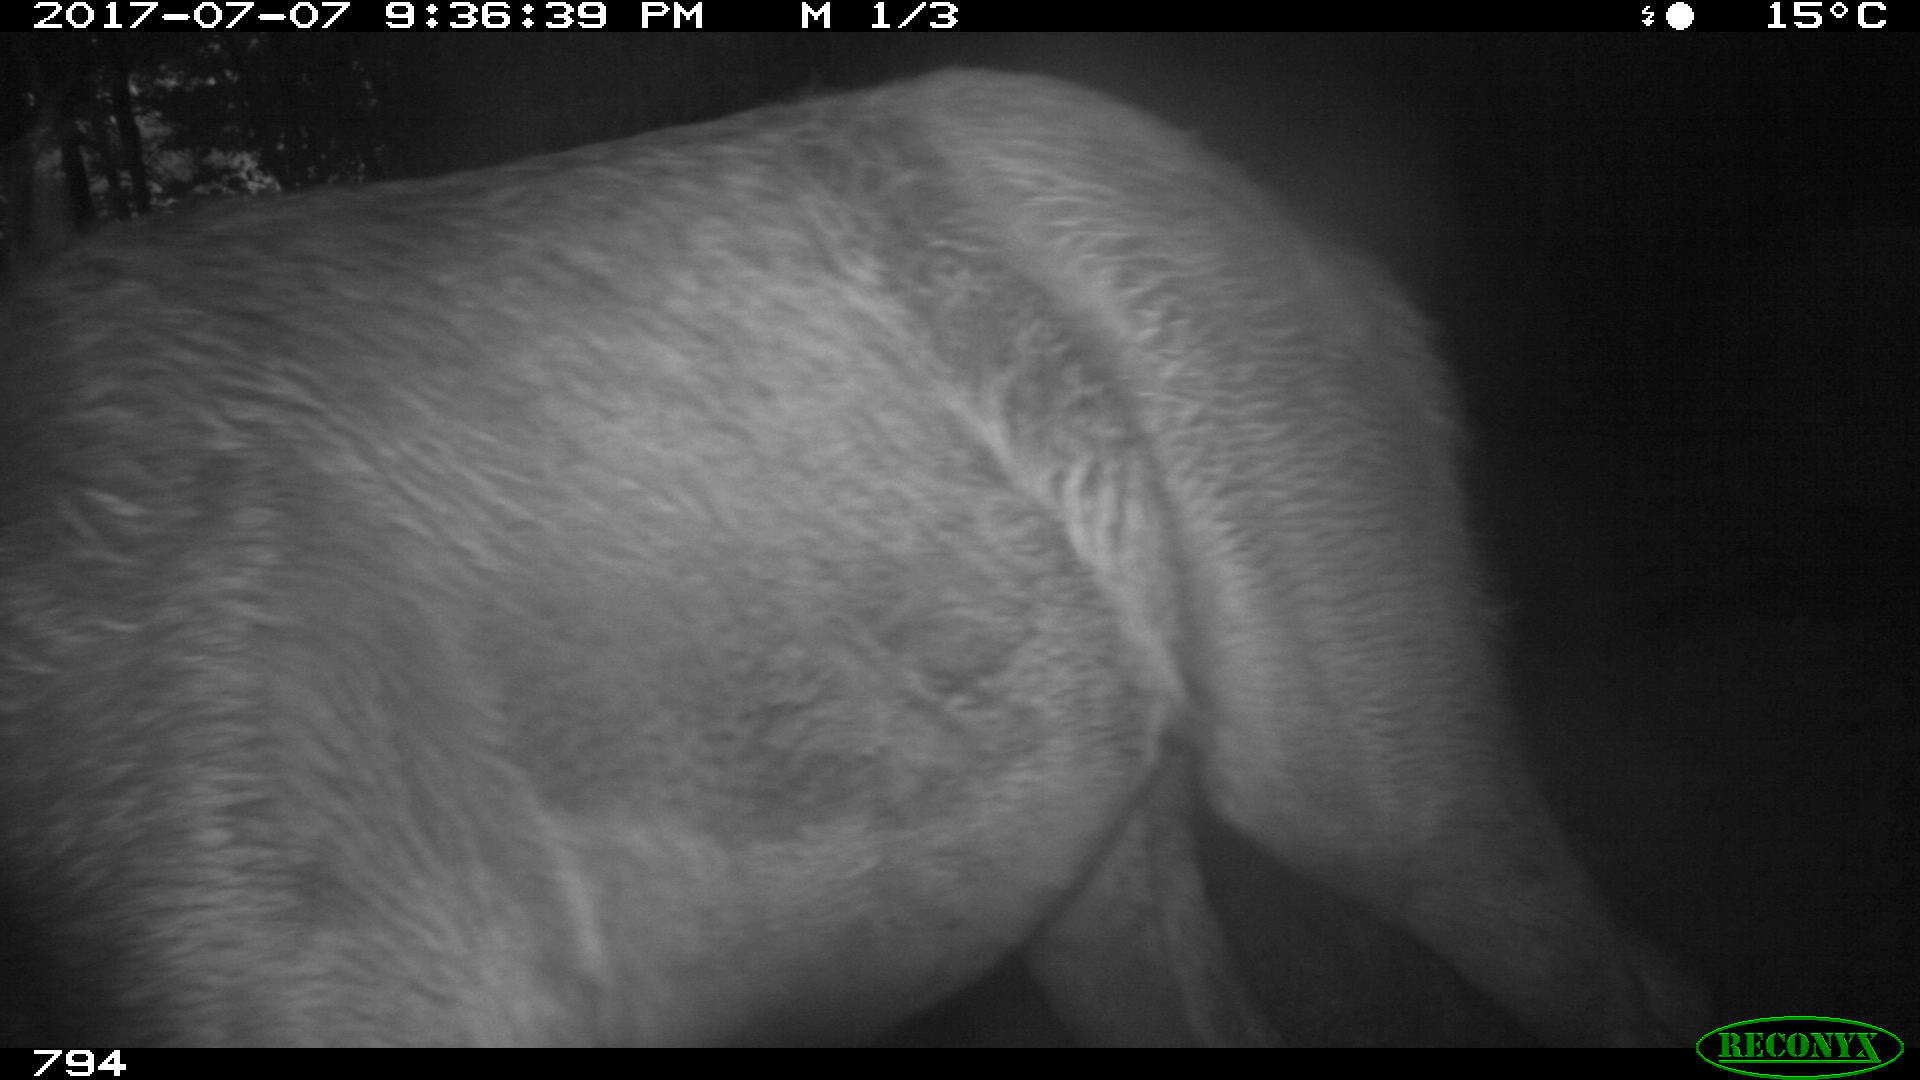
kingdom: Animalia
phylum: Chordata
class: Mammalia
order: Perissodactyla
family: Equidae
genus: Equus
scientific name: Equus caballus
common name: Horse
